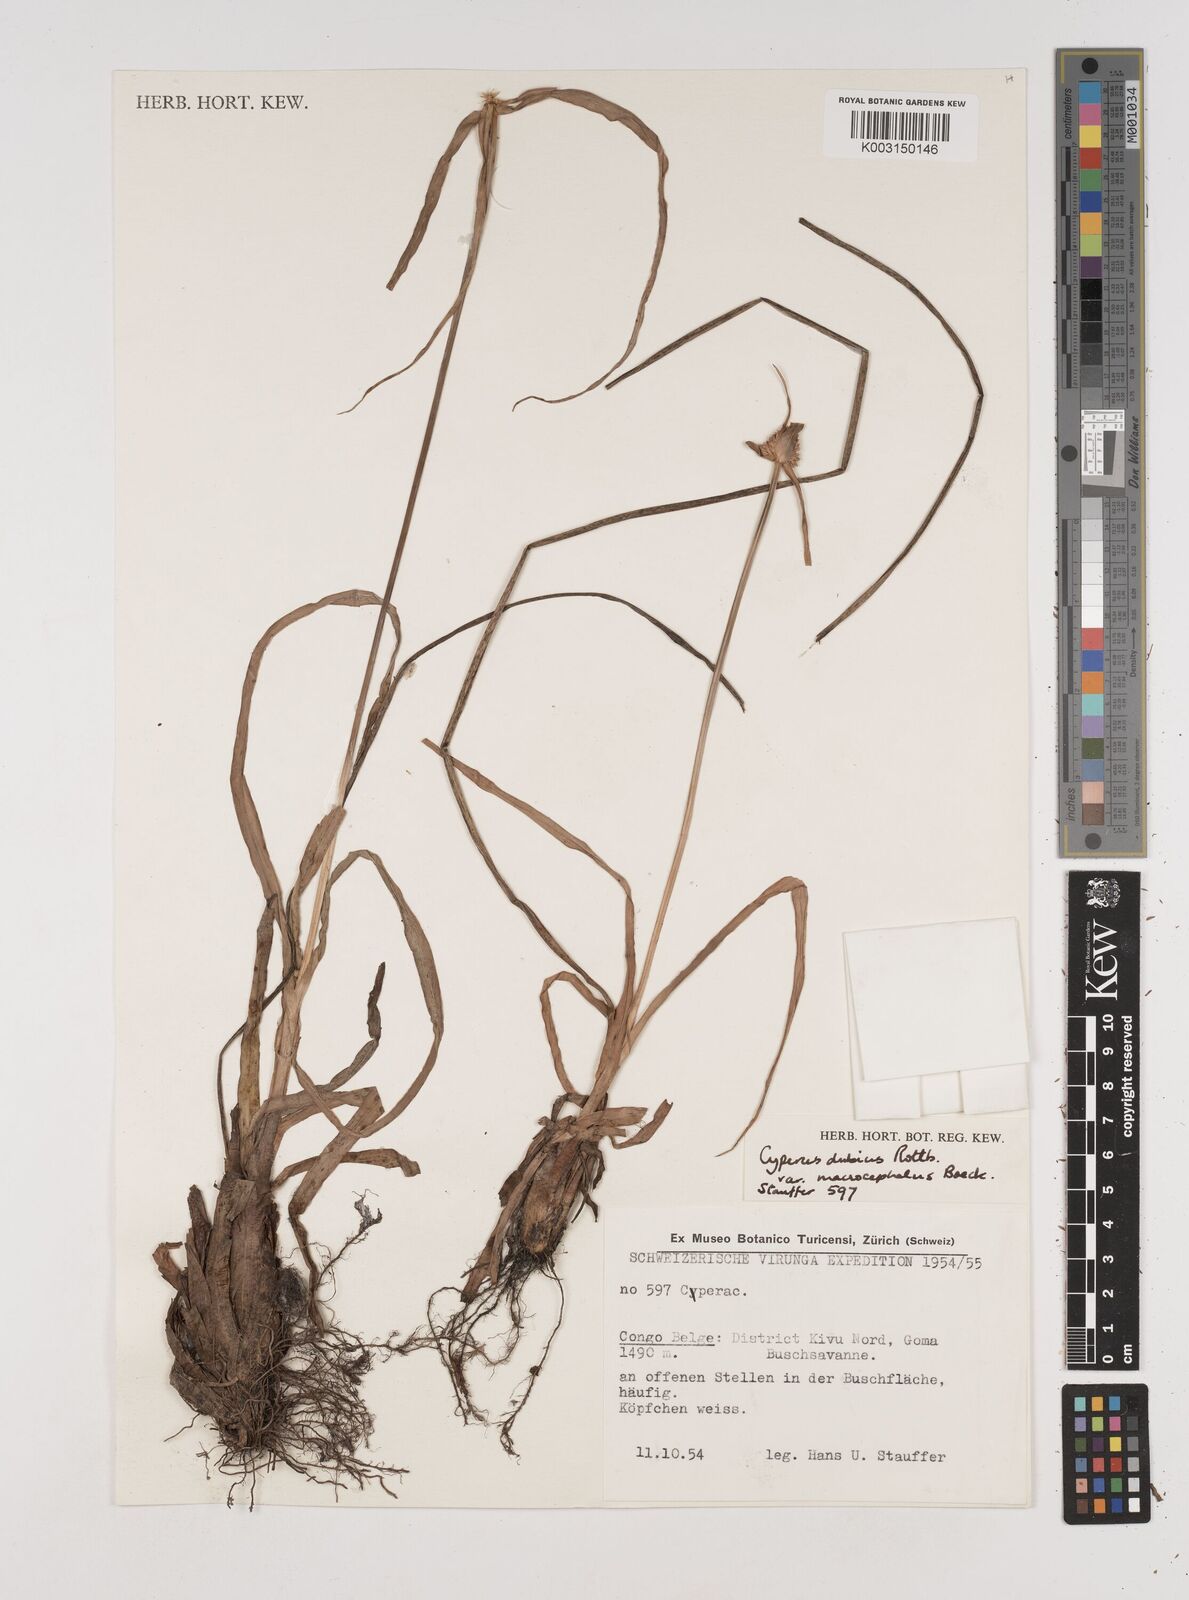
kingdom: Plantae
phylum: Tracheophyta
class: Liliopsida
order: Poales
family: Cyperaceae
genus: Cyperus
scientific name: Cyperus dubius
